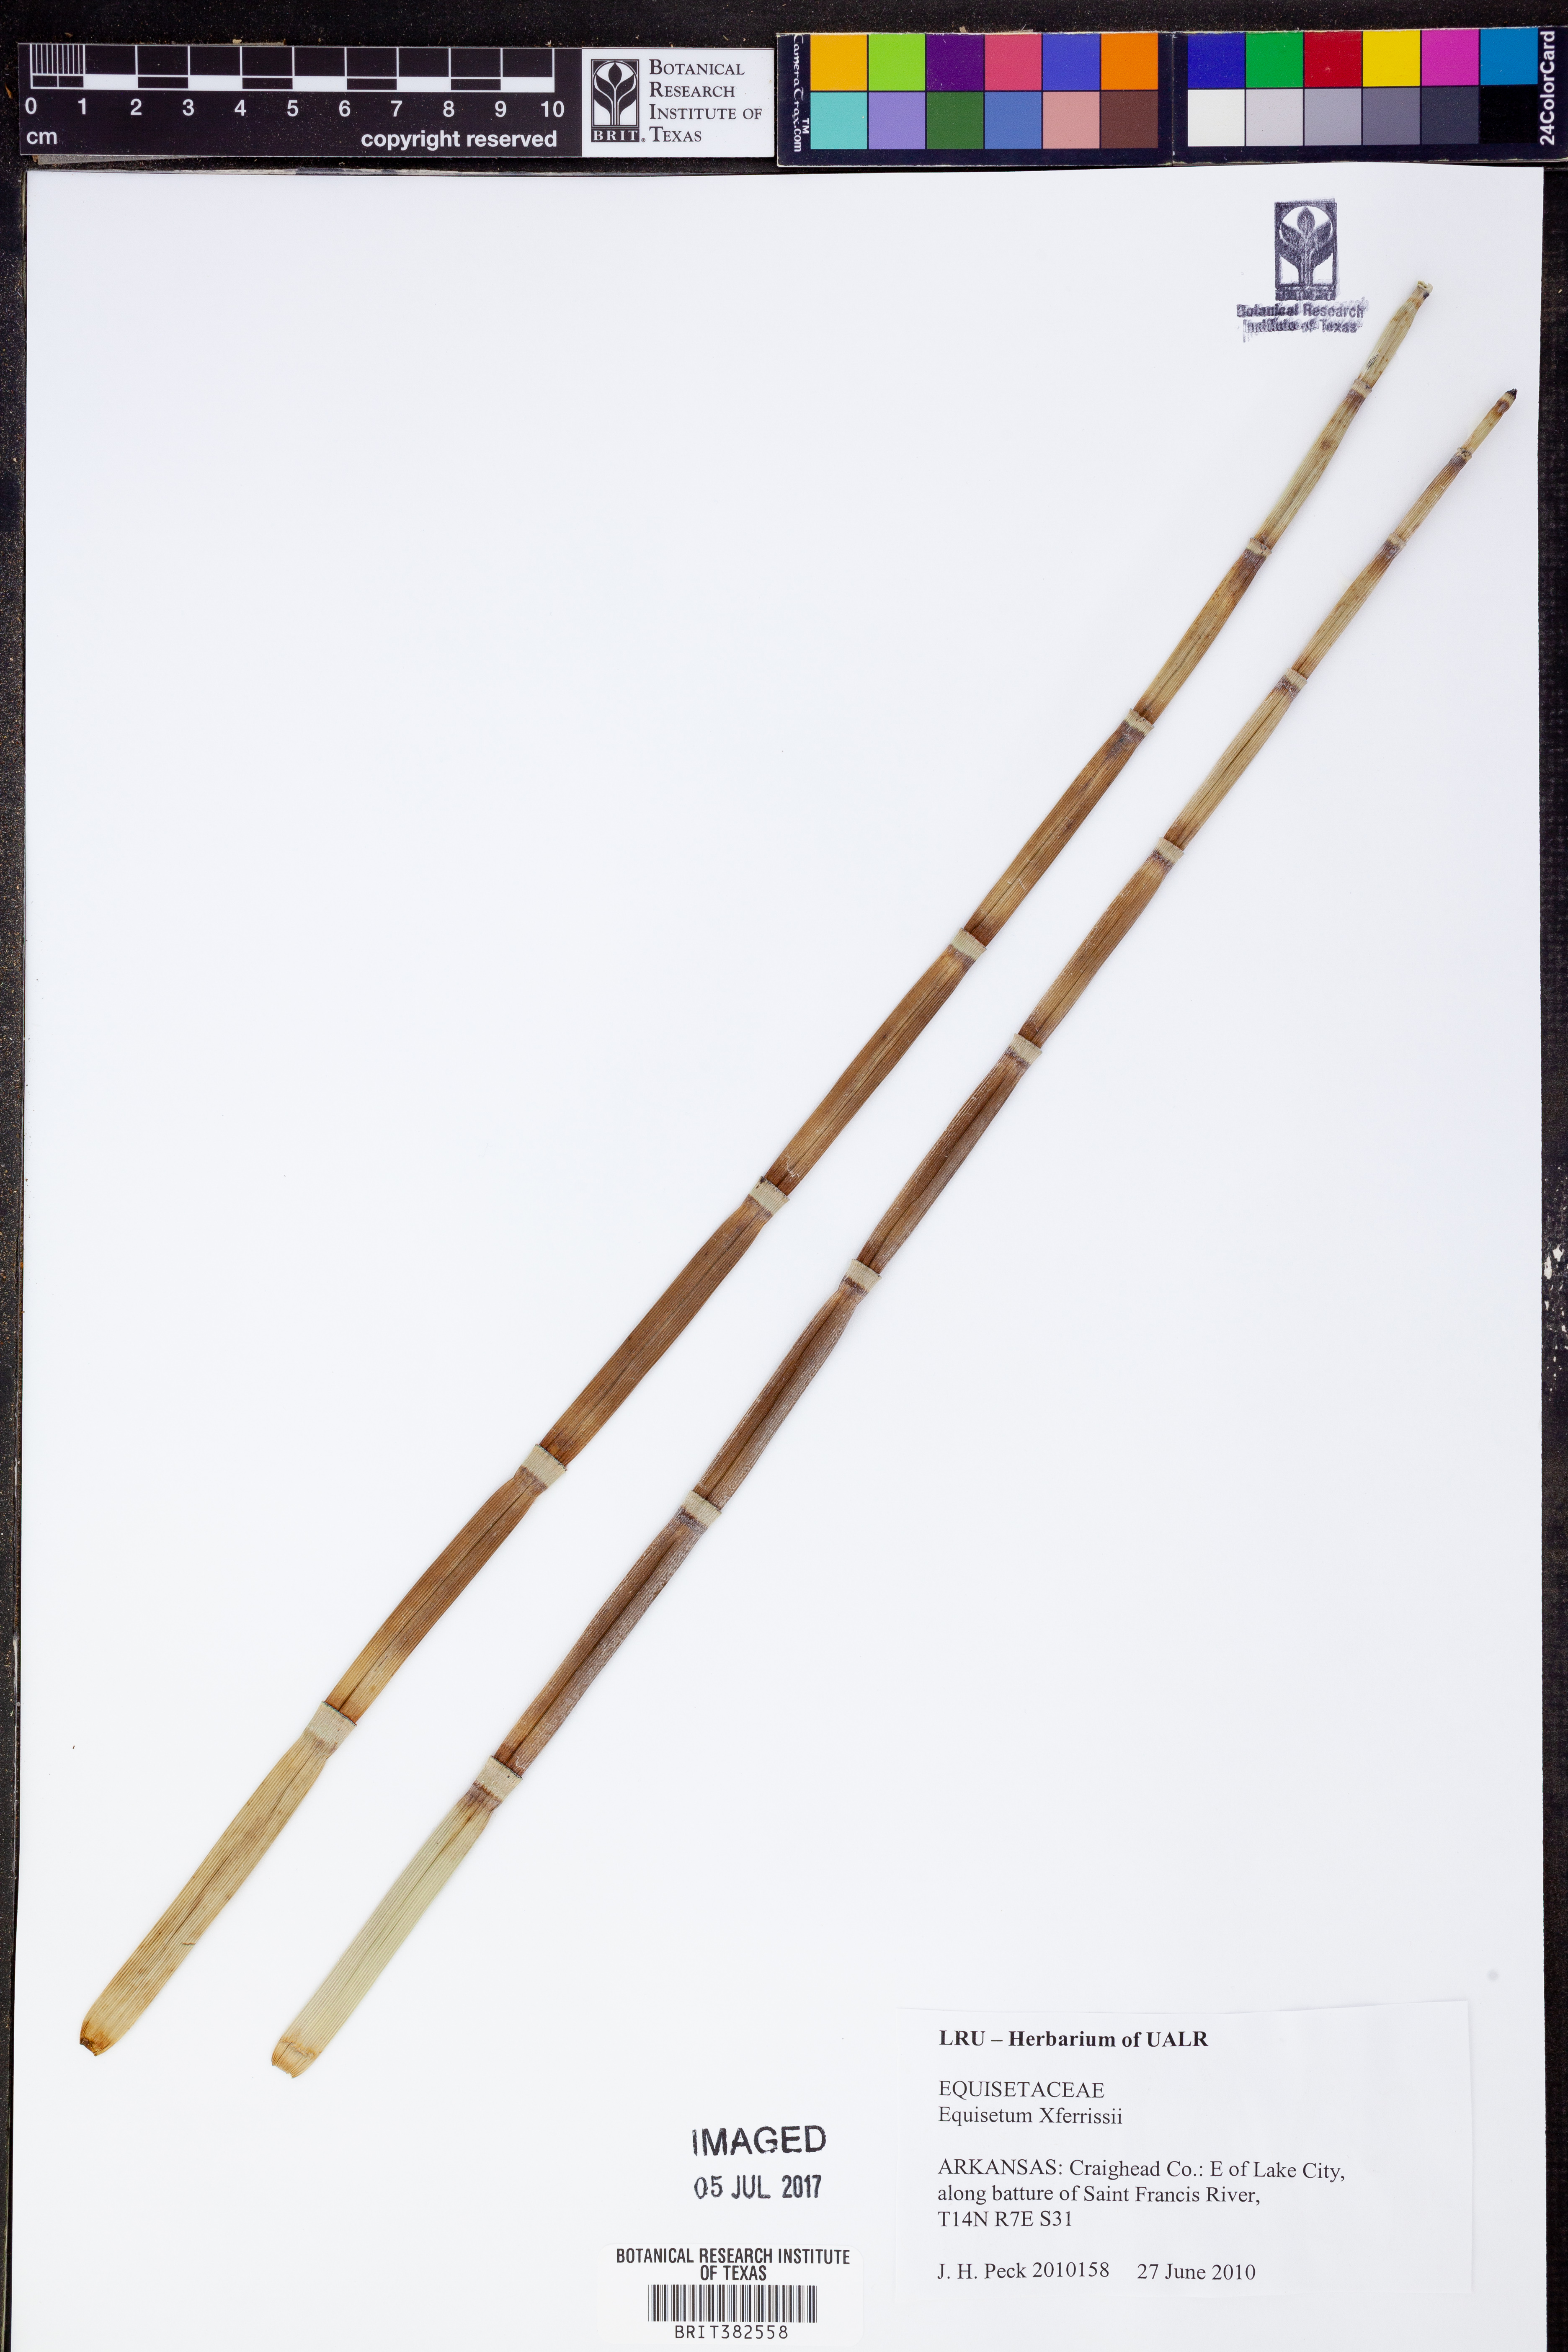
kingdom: Plantae
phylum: Tracheophyta
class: Polypodiopsida
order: Equisetales
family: Equisetaceae
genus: Equisetum
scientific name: Equisetum ferrissii
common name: Ferriss' horsetail
